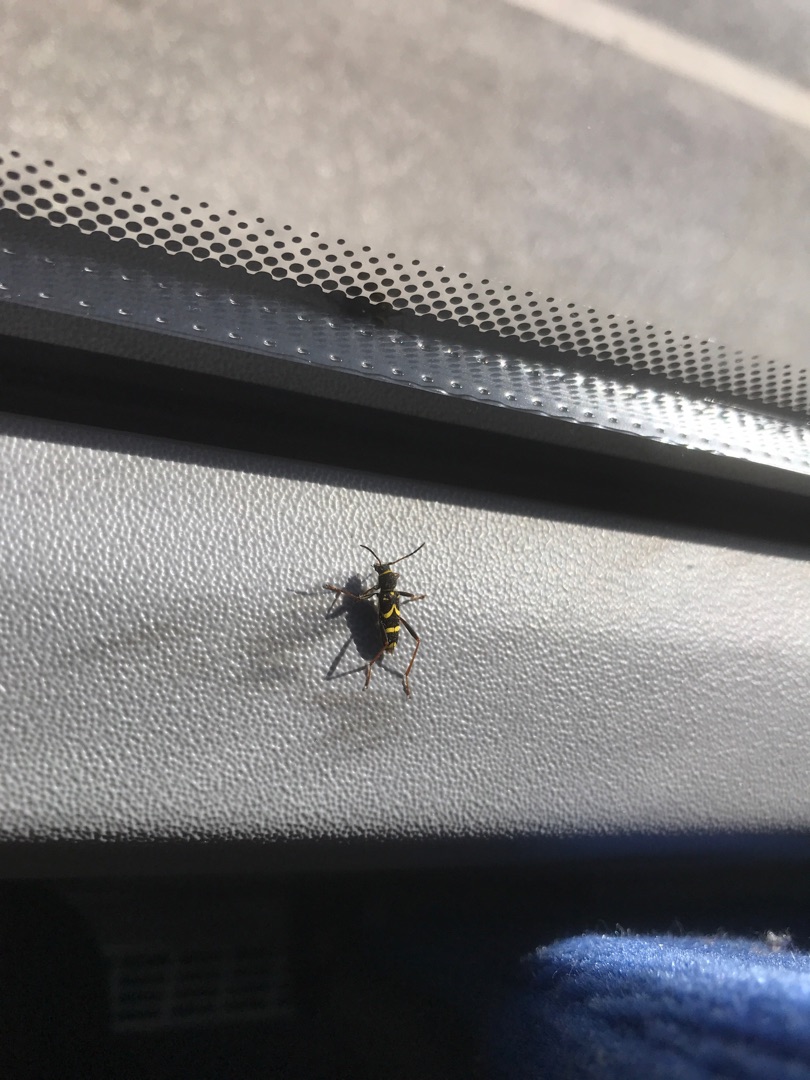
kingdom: Animalia
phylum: Arthropoda
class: Insecta
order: Coleoptera
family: Cerambycidae
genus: Clytus
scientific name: Clytus arietis
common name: Lille hvepsebuk
